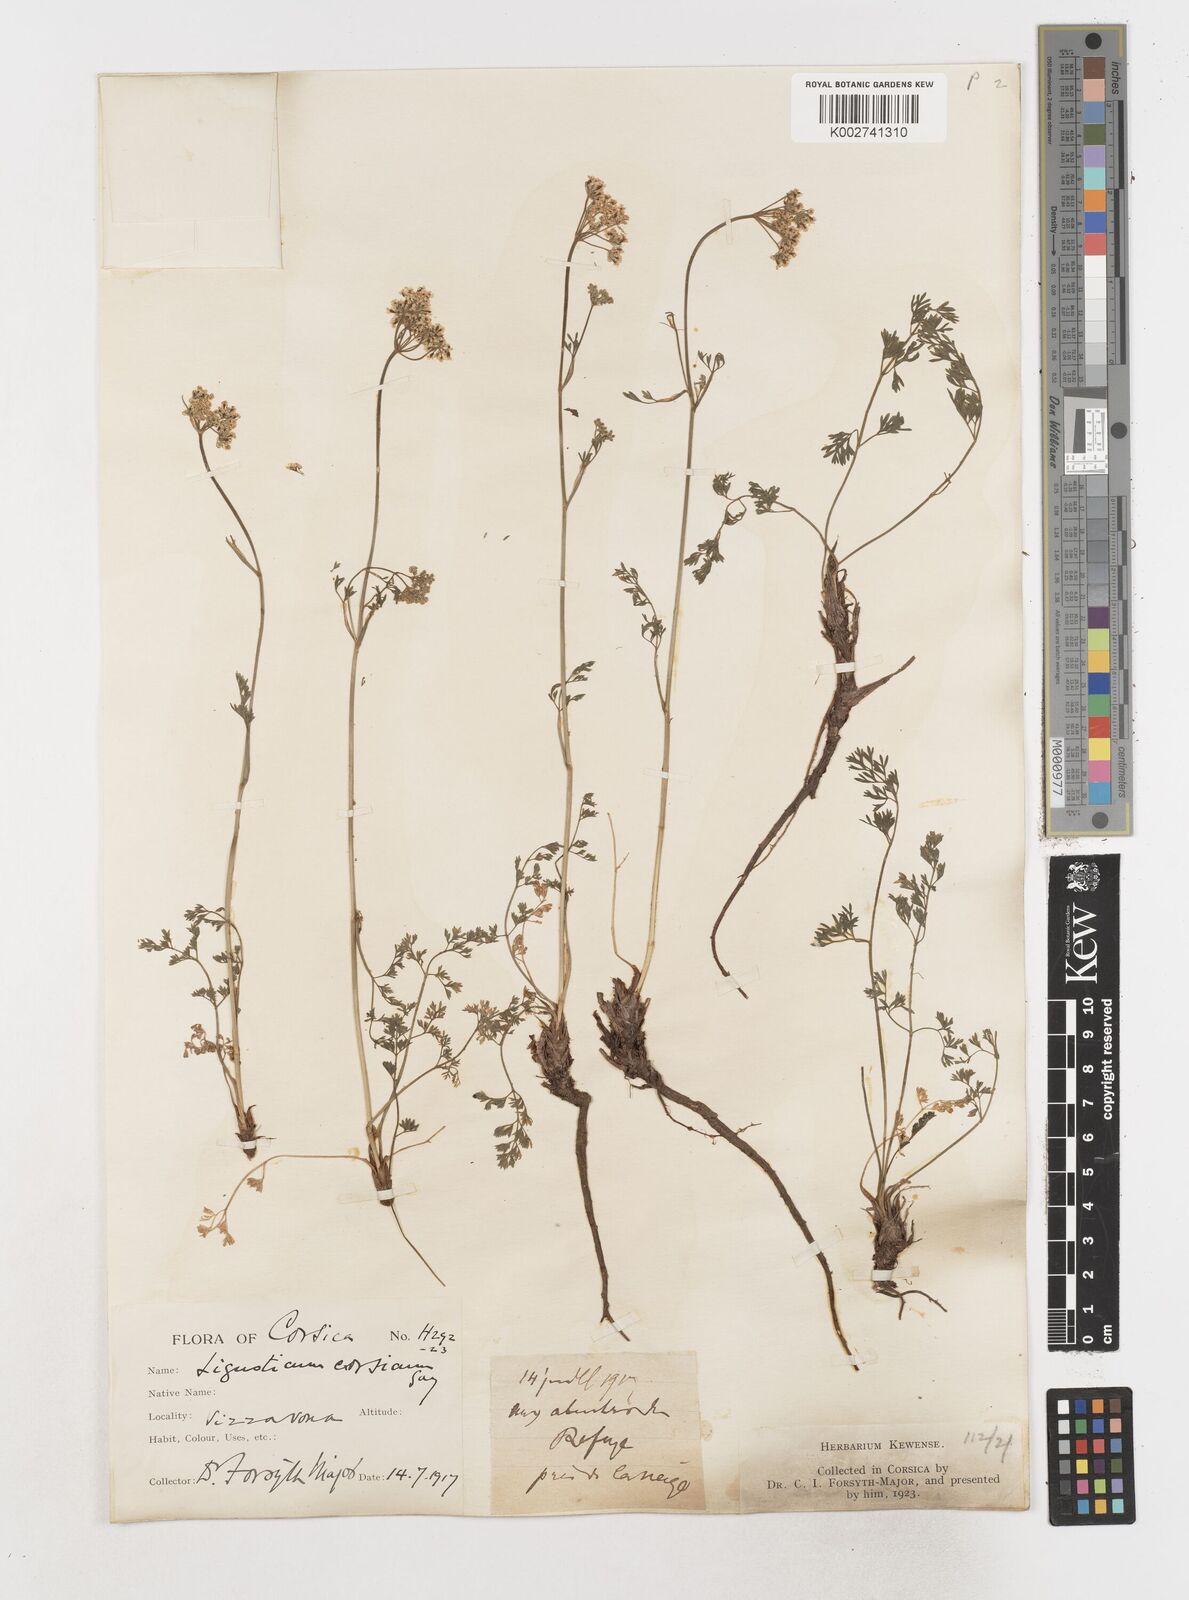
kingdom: Plantae
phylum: Tracheophyta
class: Magnoliopsida
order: Apiales
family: Apiaceae
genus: Mutellina
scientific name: Mutellina adonidifolia
